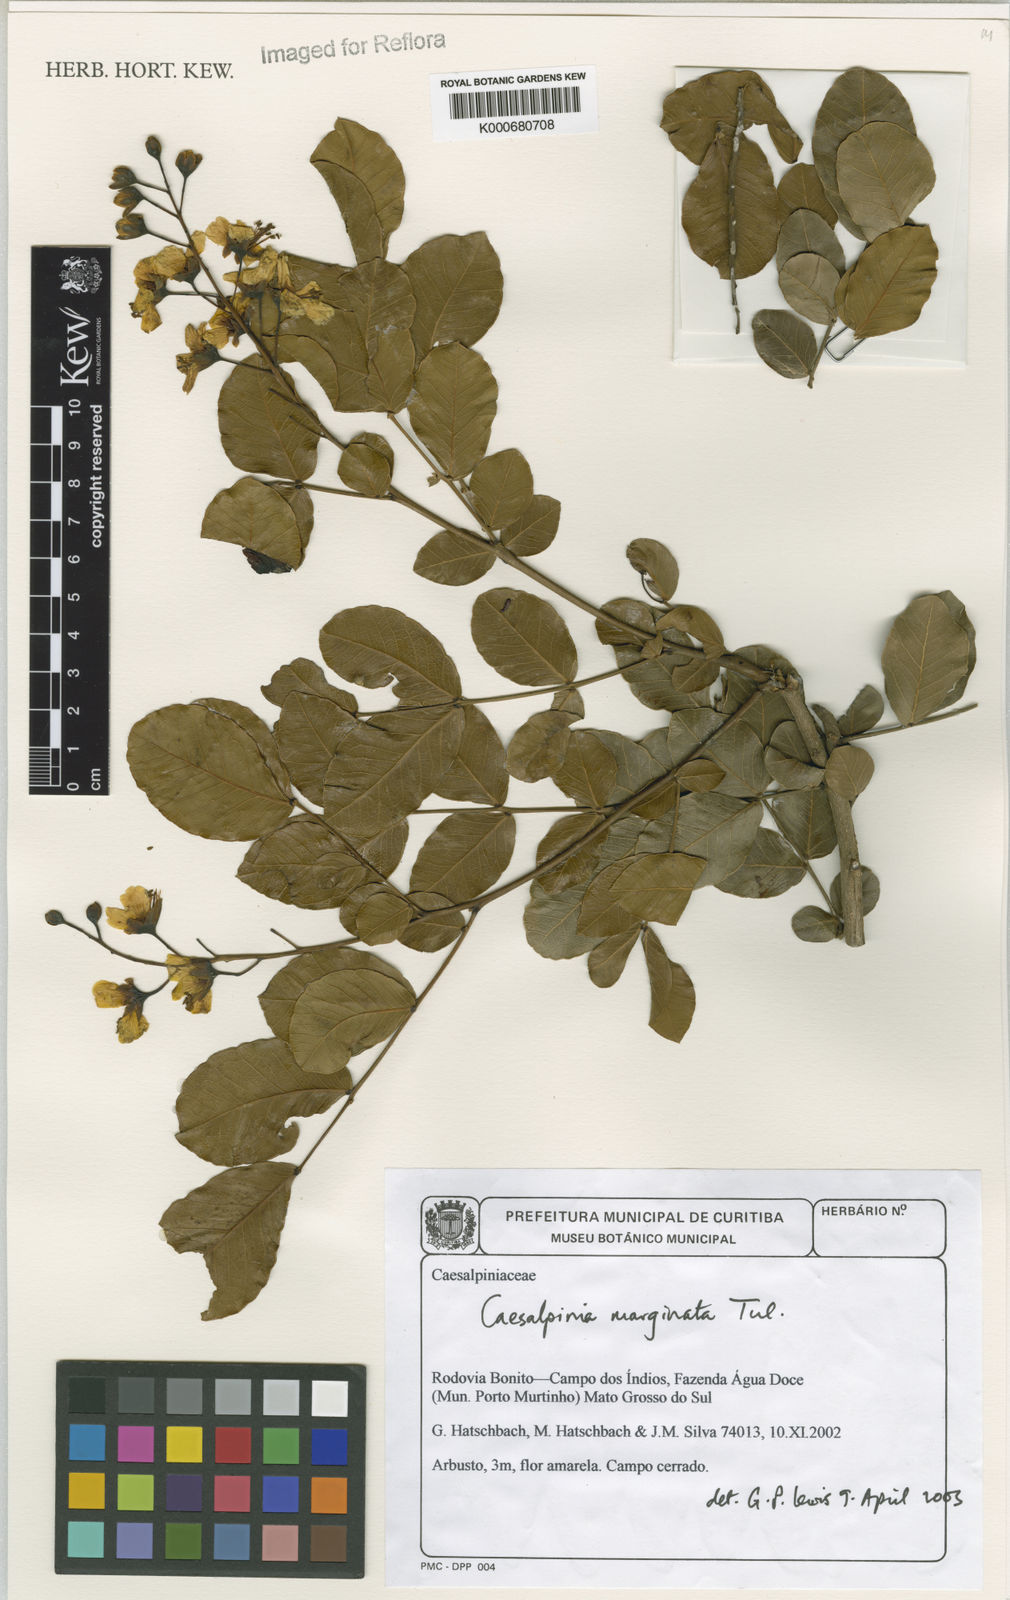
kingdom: Plantae
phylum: Tracheophyta
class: Magnoliopsida
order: Fabales
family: Fabaceae
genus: Cenostigma
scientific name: Cenostigma marginatum
